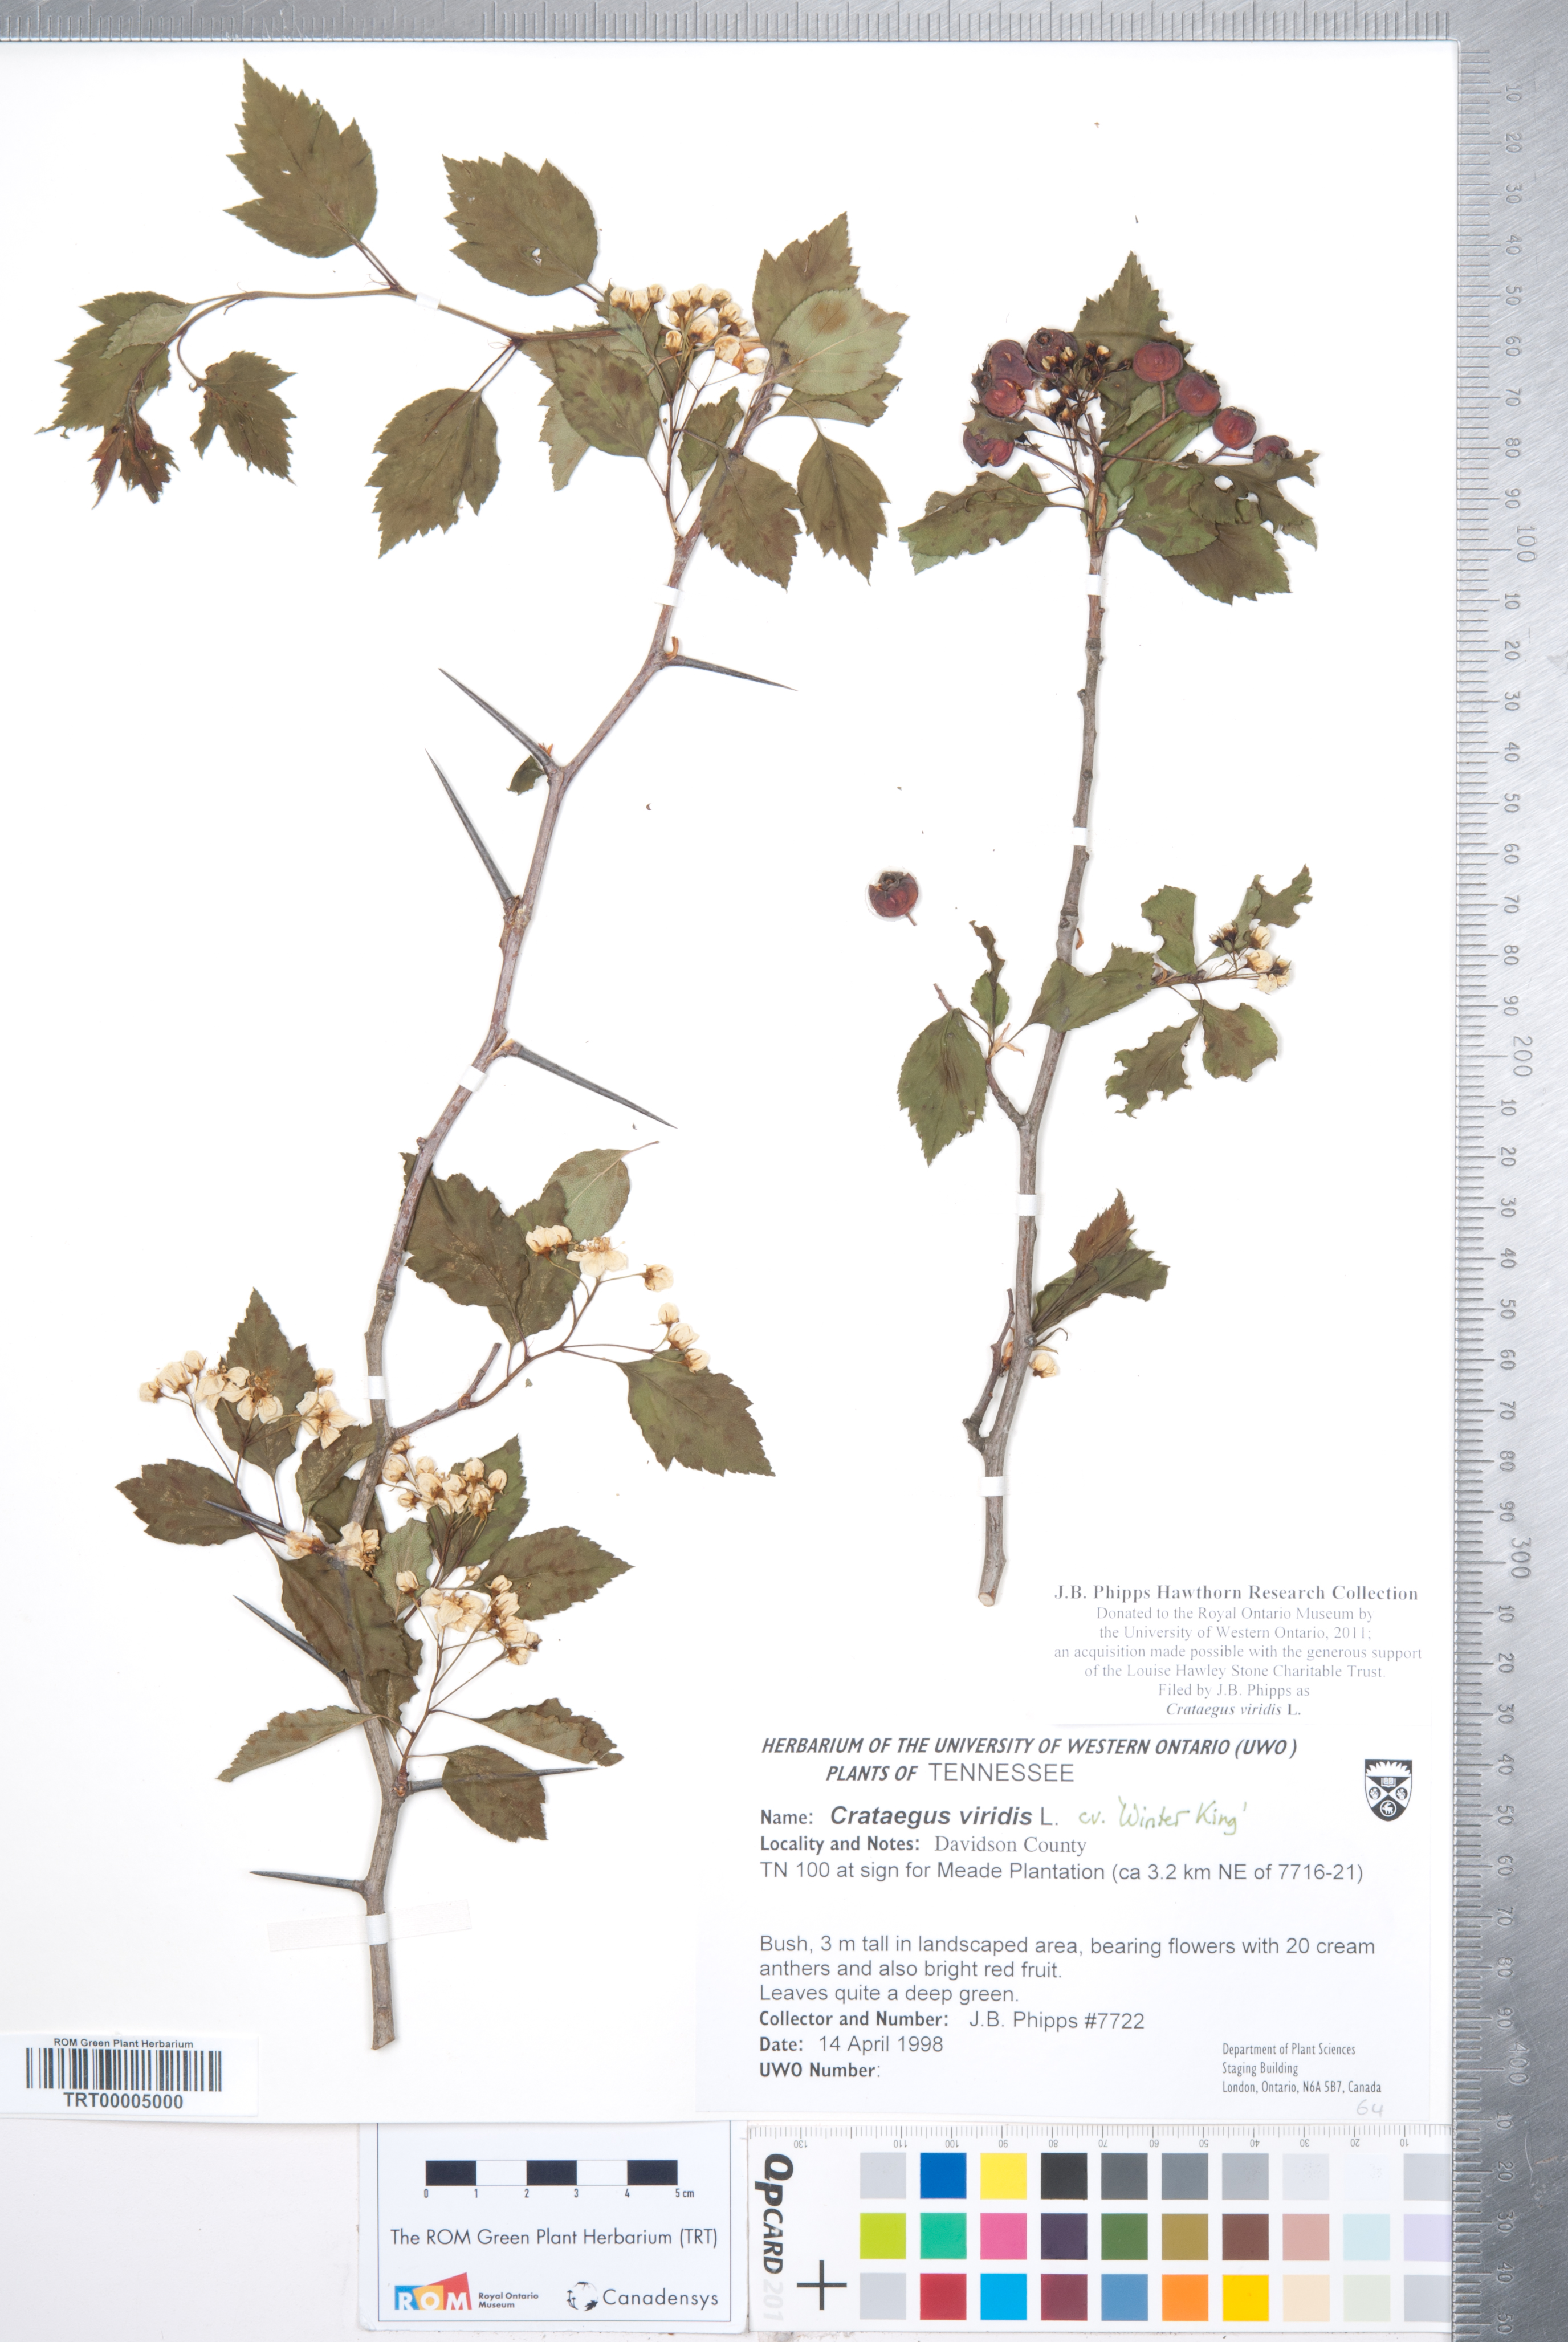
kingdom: Plantae
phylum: Tracheophyta
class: Magnoliopsida
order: Rosales
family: Rosaceae
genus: Crataegus
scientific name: Crataegus viridis
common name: Southernthorn
